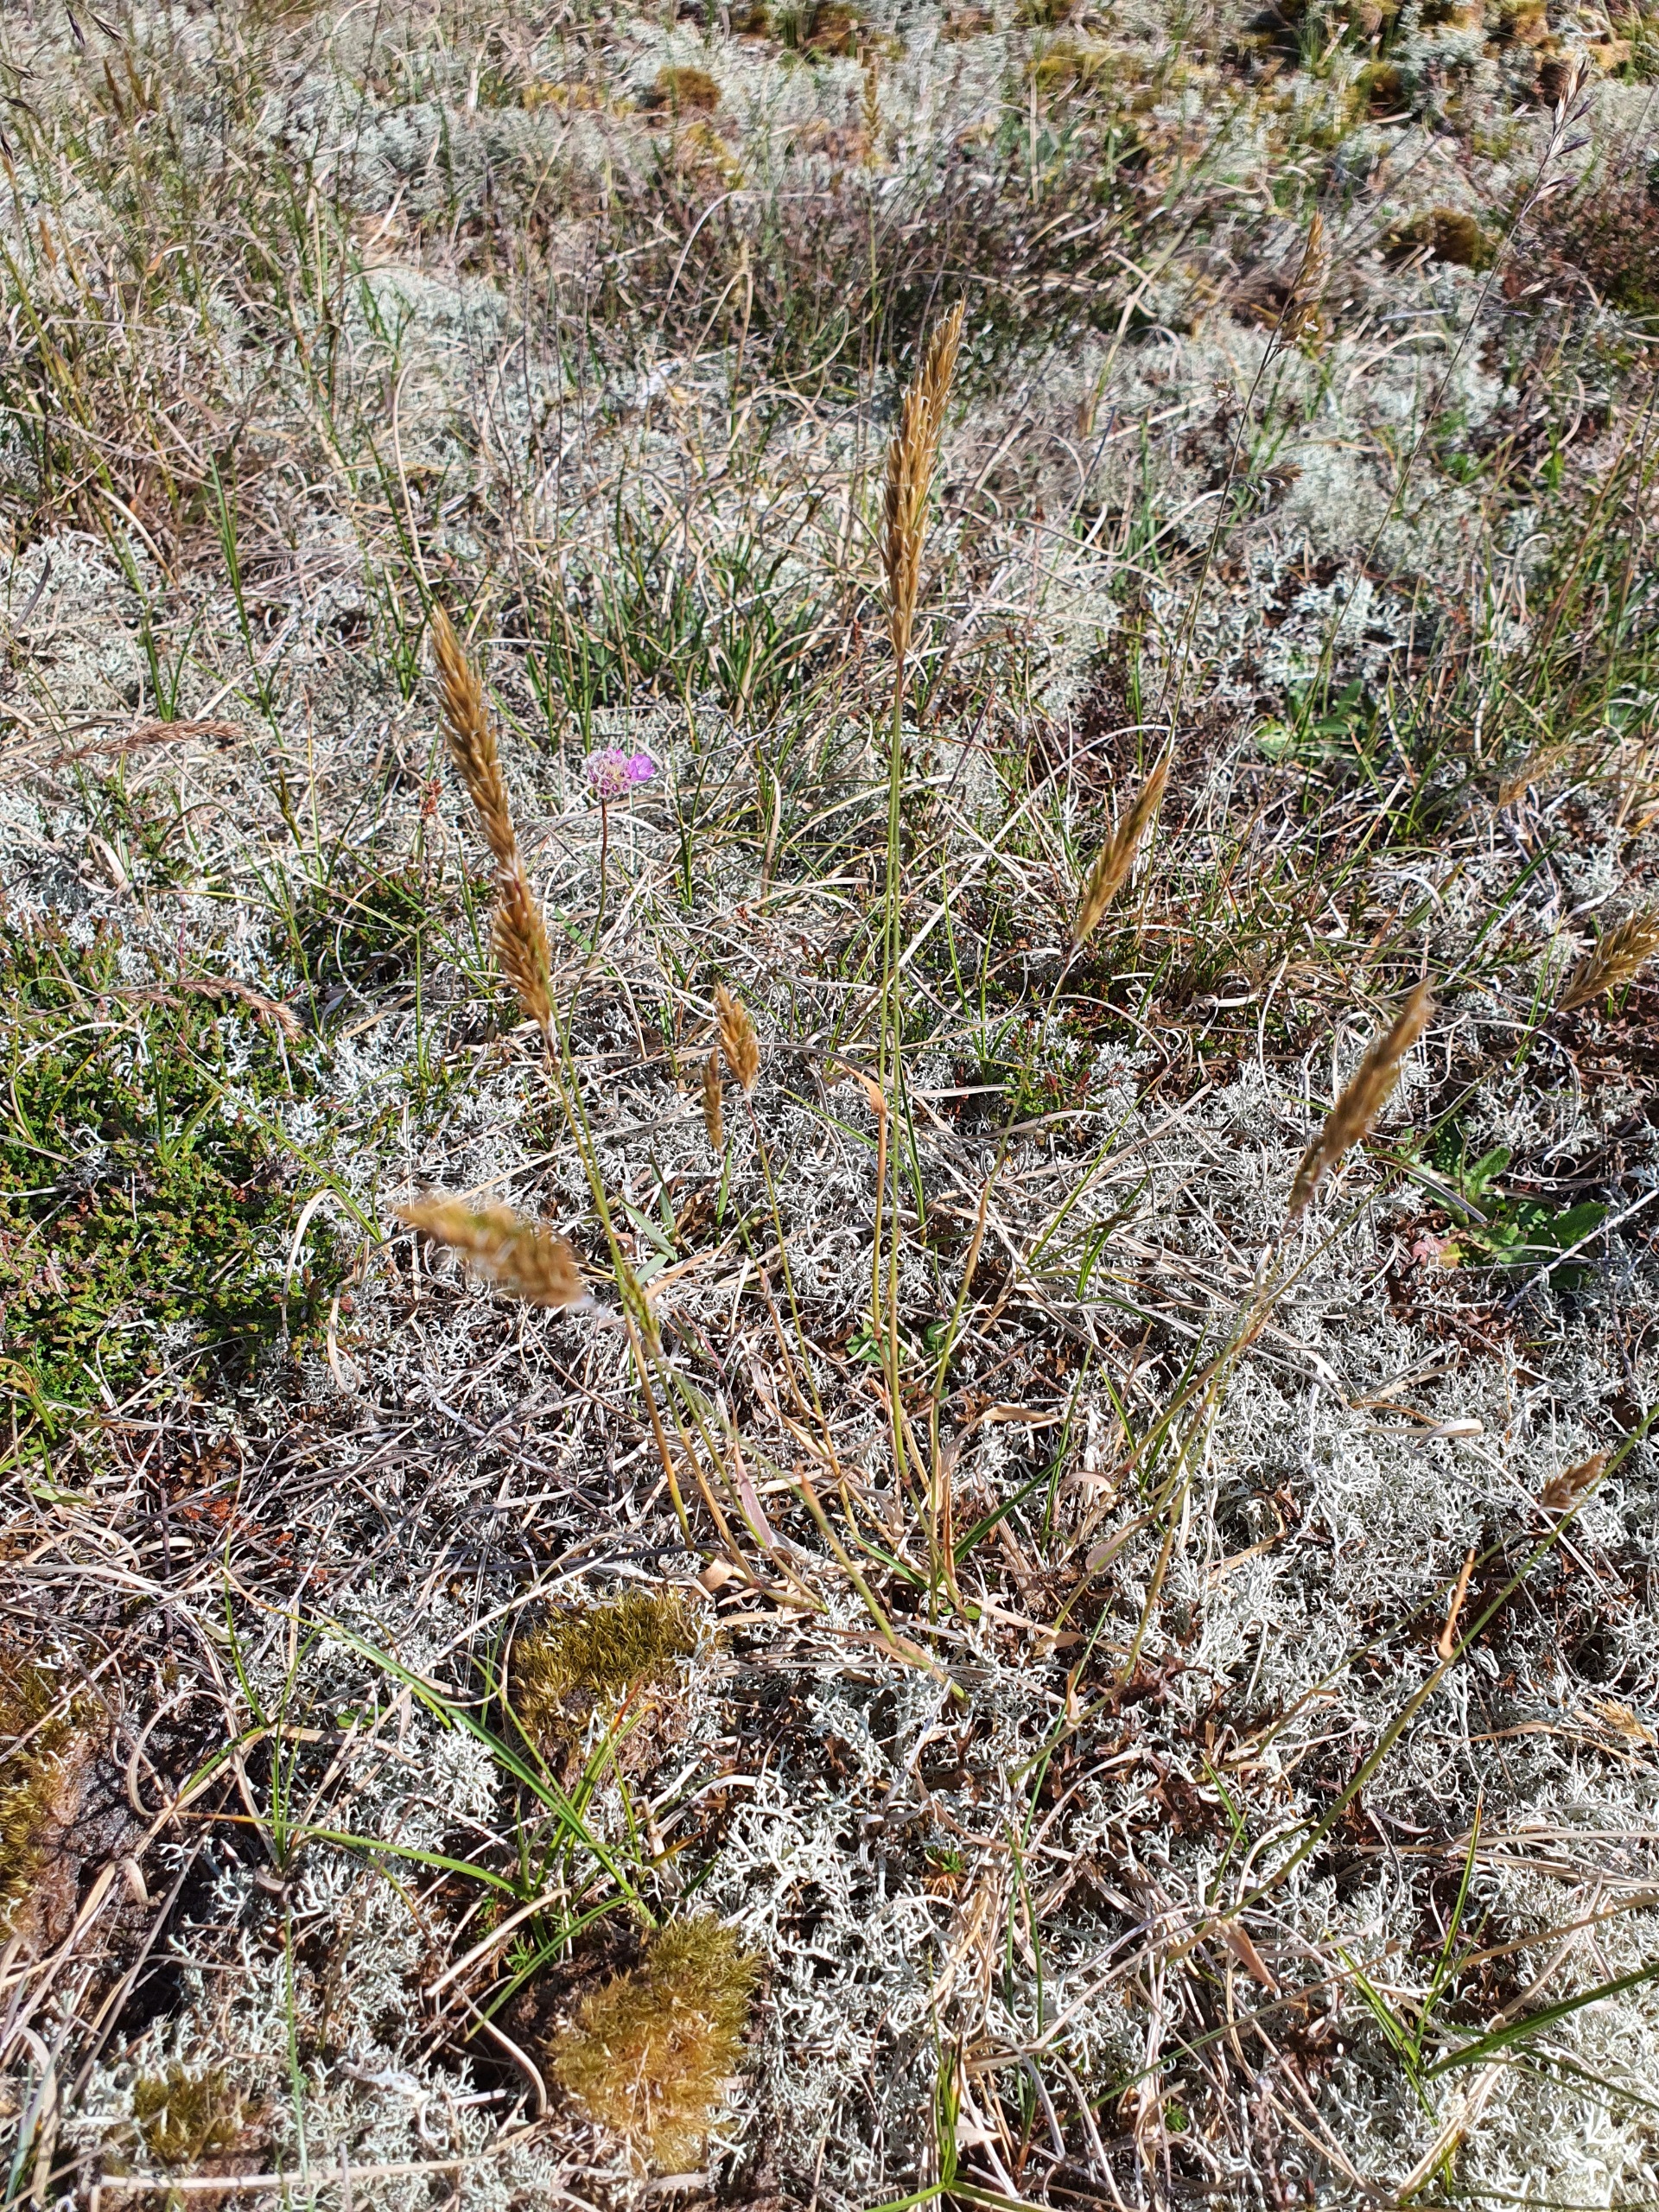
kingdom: Plantae
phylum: Tracheophyta
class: Liliopsida
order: Poales
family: Poaceae
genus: Anthoxanthum
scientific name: Anthoxanthum odoratum
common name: Vellugtende gulaks
